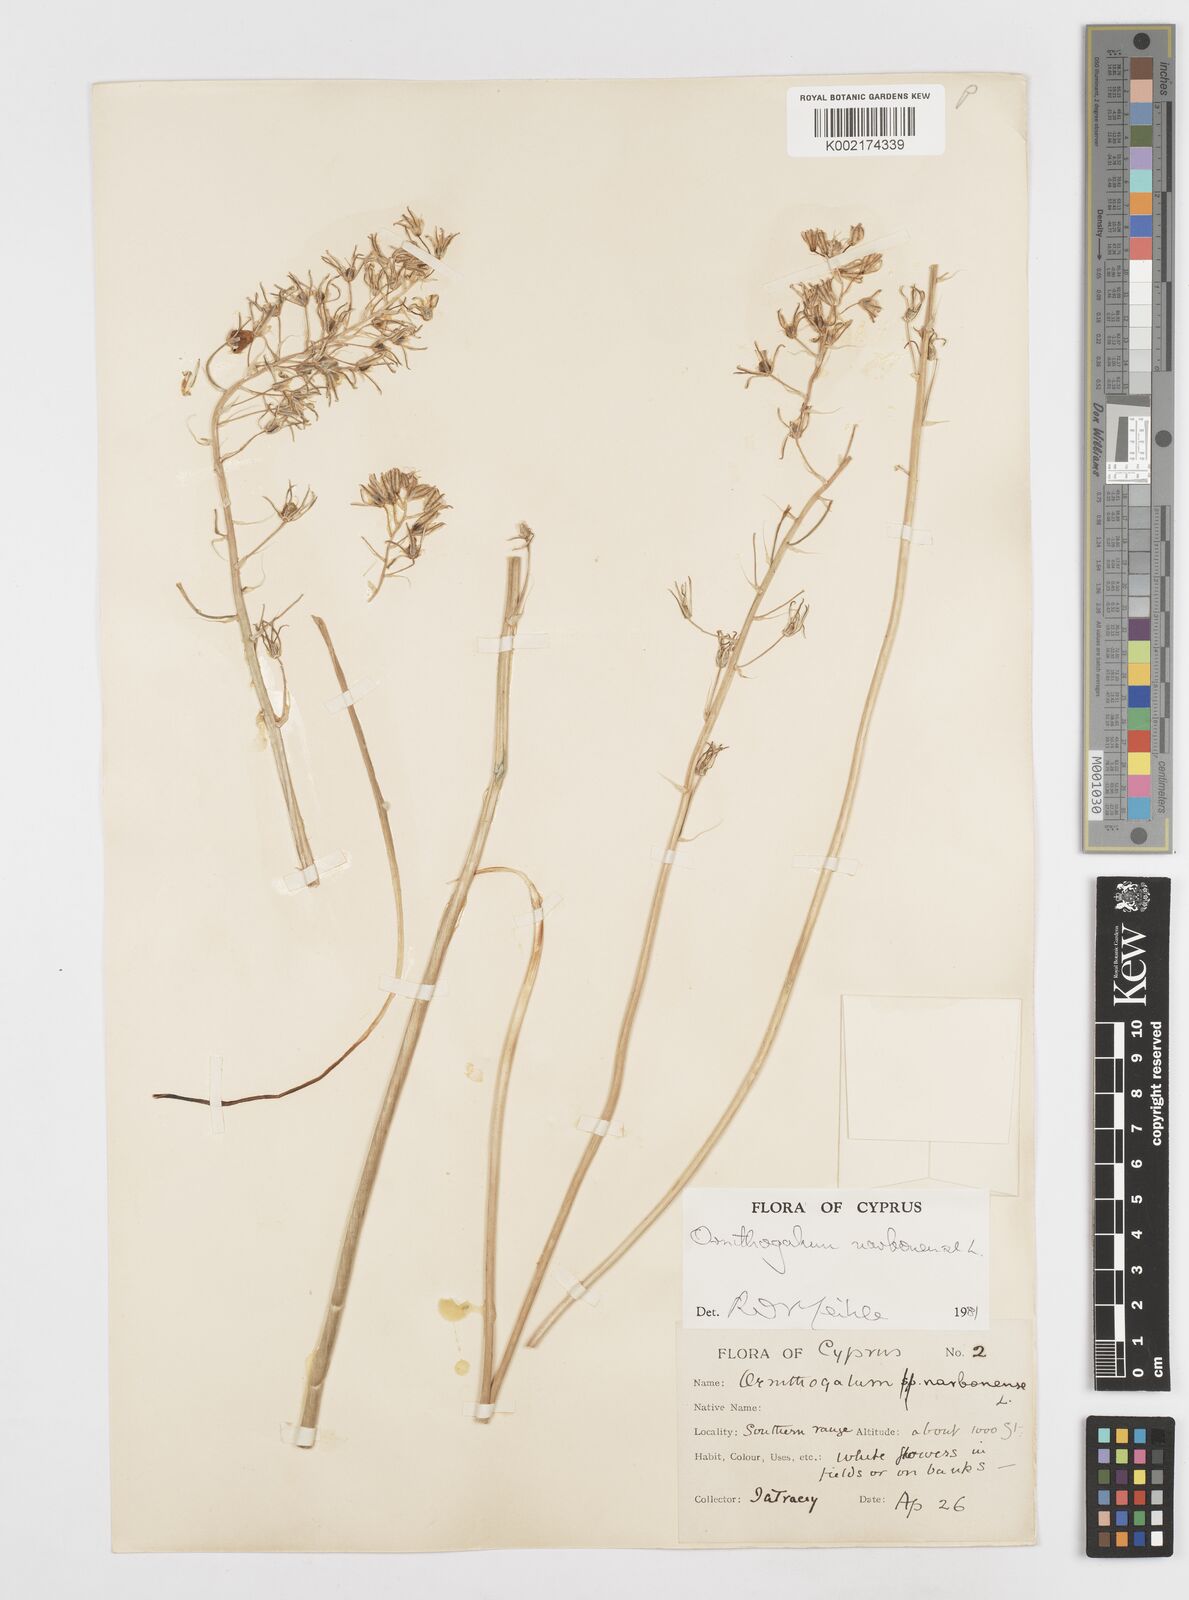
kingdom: Plantae
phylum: Tracheophyta
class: Liliopsida
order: Asparagales
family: Asparagaceae
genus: Ornithogalum
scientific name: Ornithogalum narbonense
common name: Bath-asparagus
